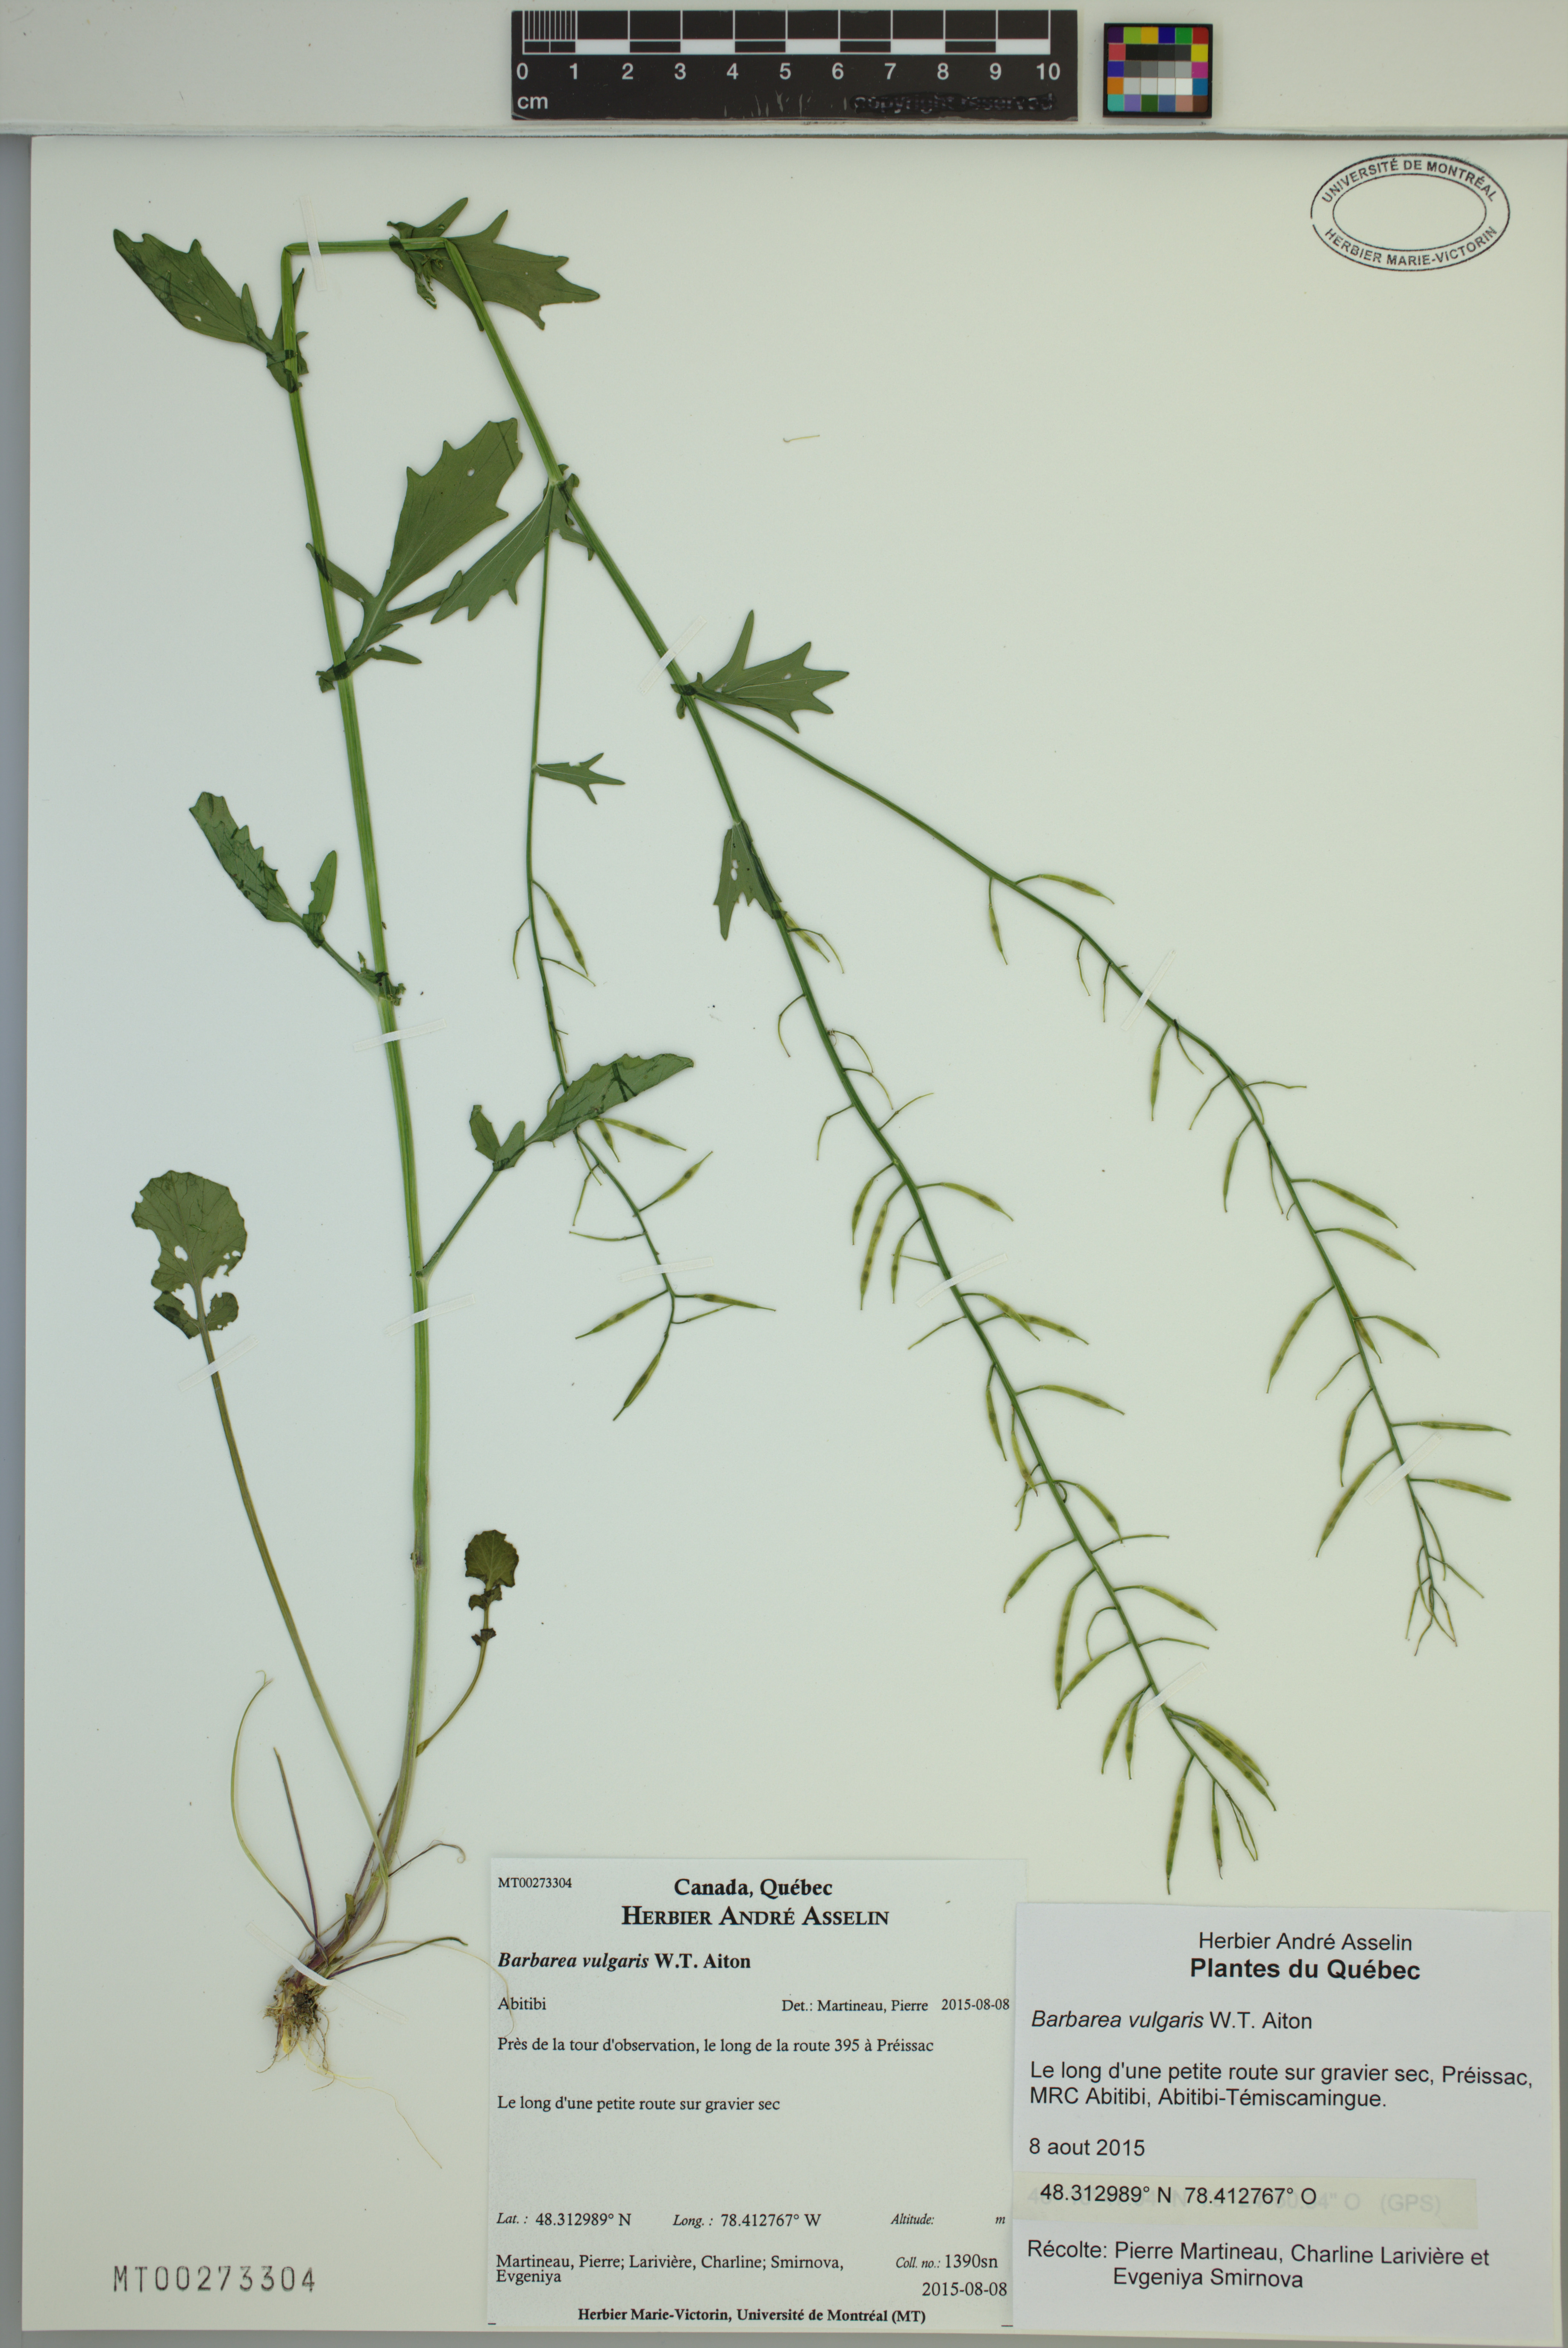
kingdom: Plantae
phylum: Tracheophyta
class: Magnoliopsida
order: Brassicales
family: Brassicaceae
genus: Barbarea
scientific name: Barbarea vulgaris
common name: Cressy-greens
